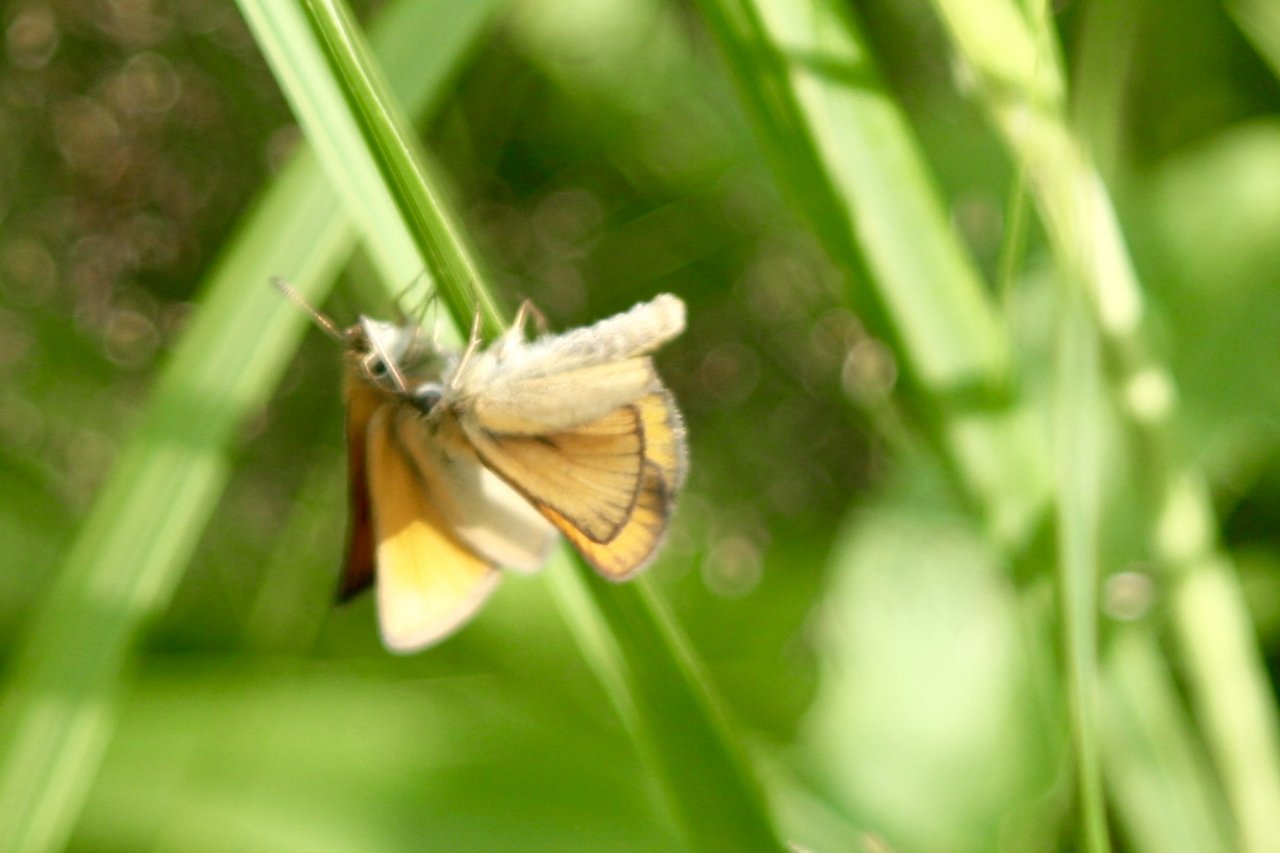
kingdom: Animalia
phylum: Arthropoda
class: Insecta
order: Lepidoptera
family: Hesperiidae
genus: Thymelicus
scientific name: Thymelicus lineola
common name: European Skipper
